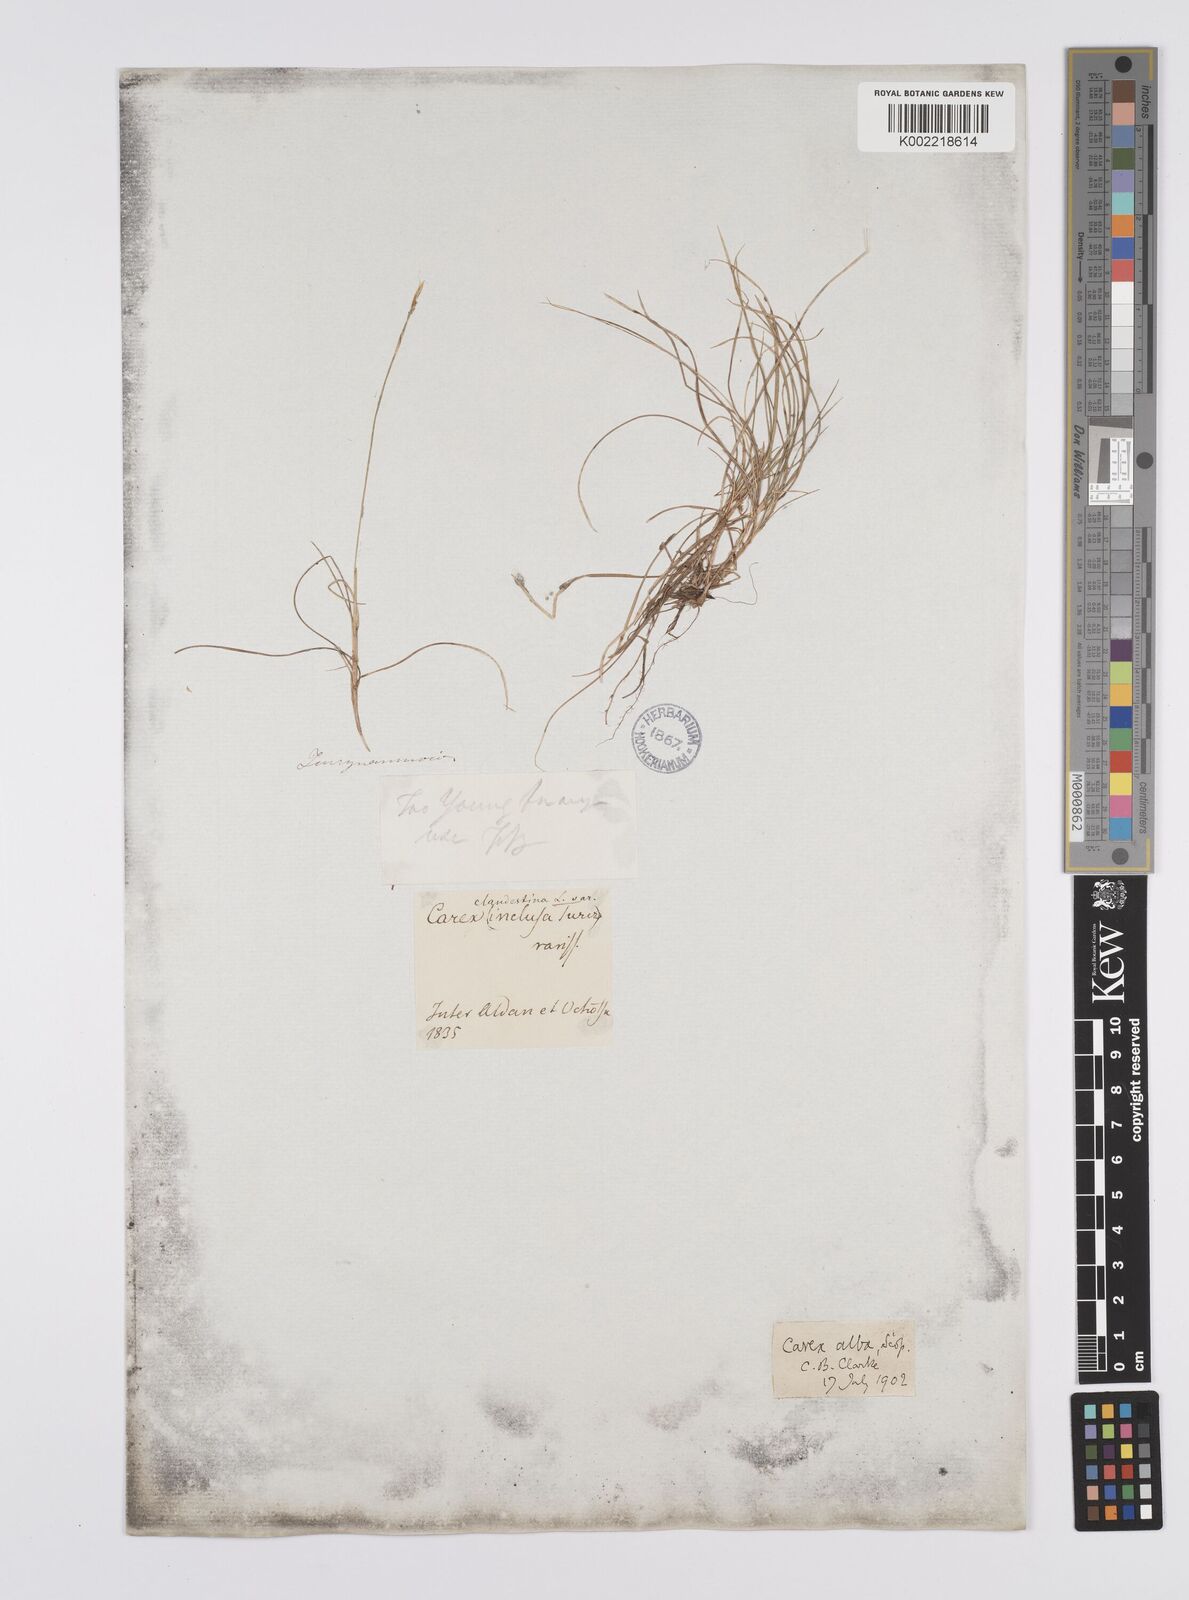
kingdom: Plantae
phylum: Tracheophyta
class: Liliopsida
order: Poales
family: Cyperaceae
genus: Carex
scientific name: Carex alba
